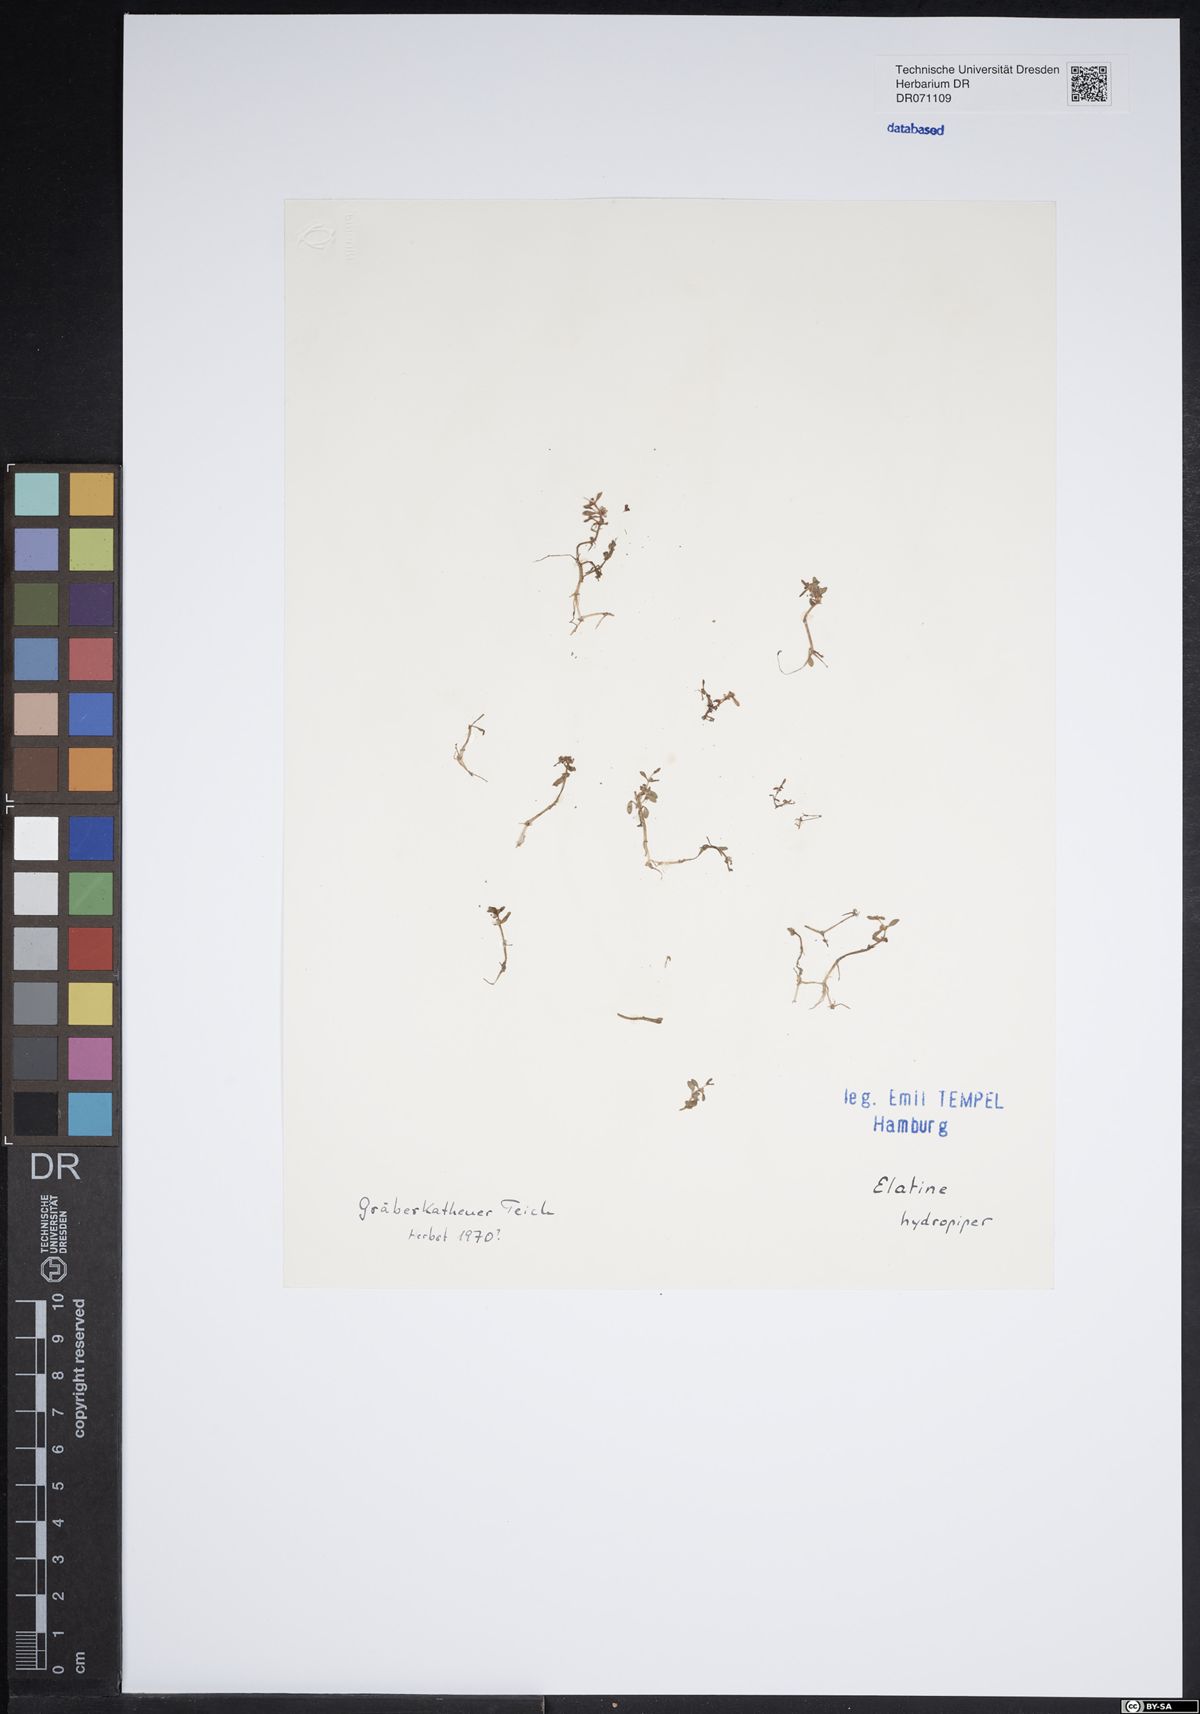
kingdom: Plantae
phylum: Tracheophyta
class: Magnoliopsida
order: Malpighiales
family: Elatinaceae
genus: Elatine
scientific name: Elatine hydropiper
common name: Eight-stamened waterwort
